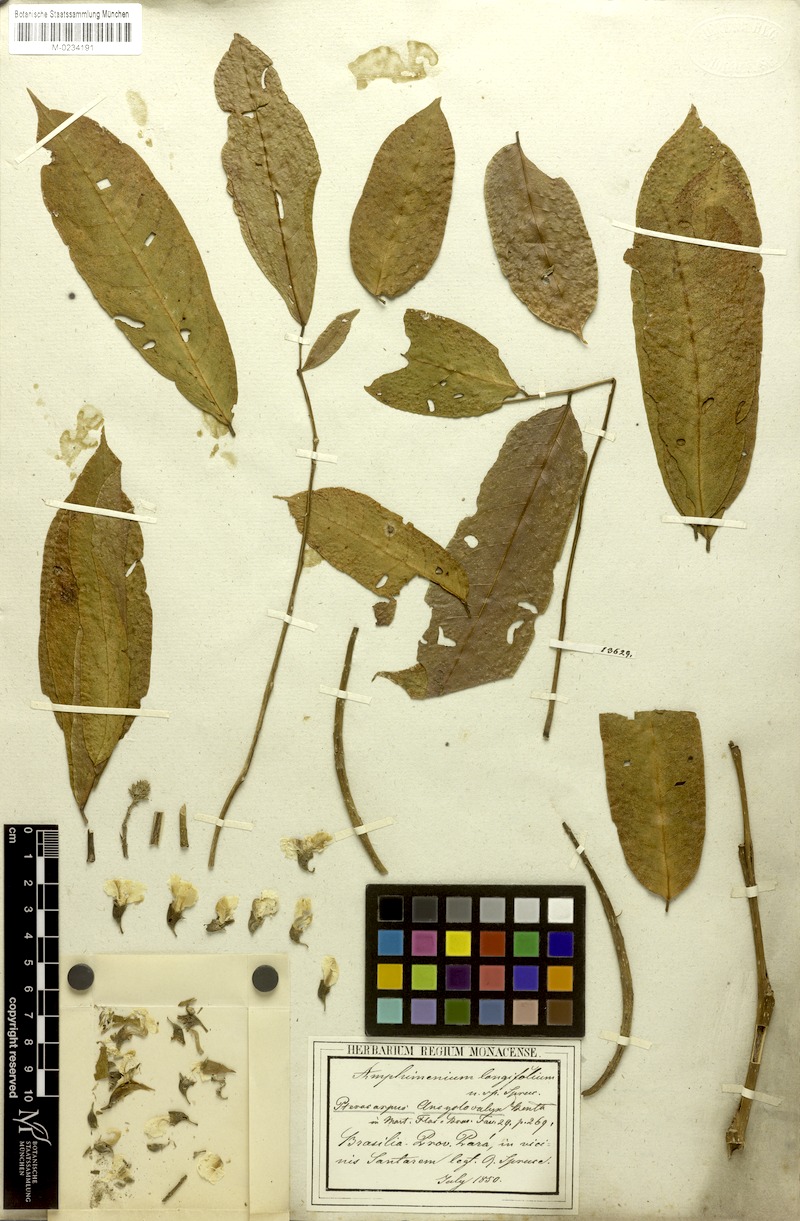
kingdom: Plantae
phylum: Tracheophyta
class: Magnoliopsida
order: Fabales
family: Fabaceae
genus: Pterocarpus
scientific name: Pterocarpus amazonum
